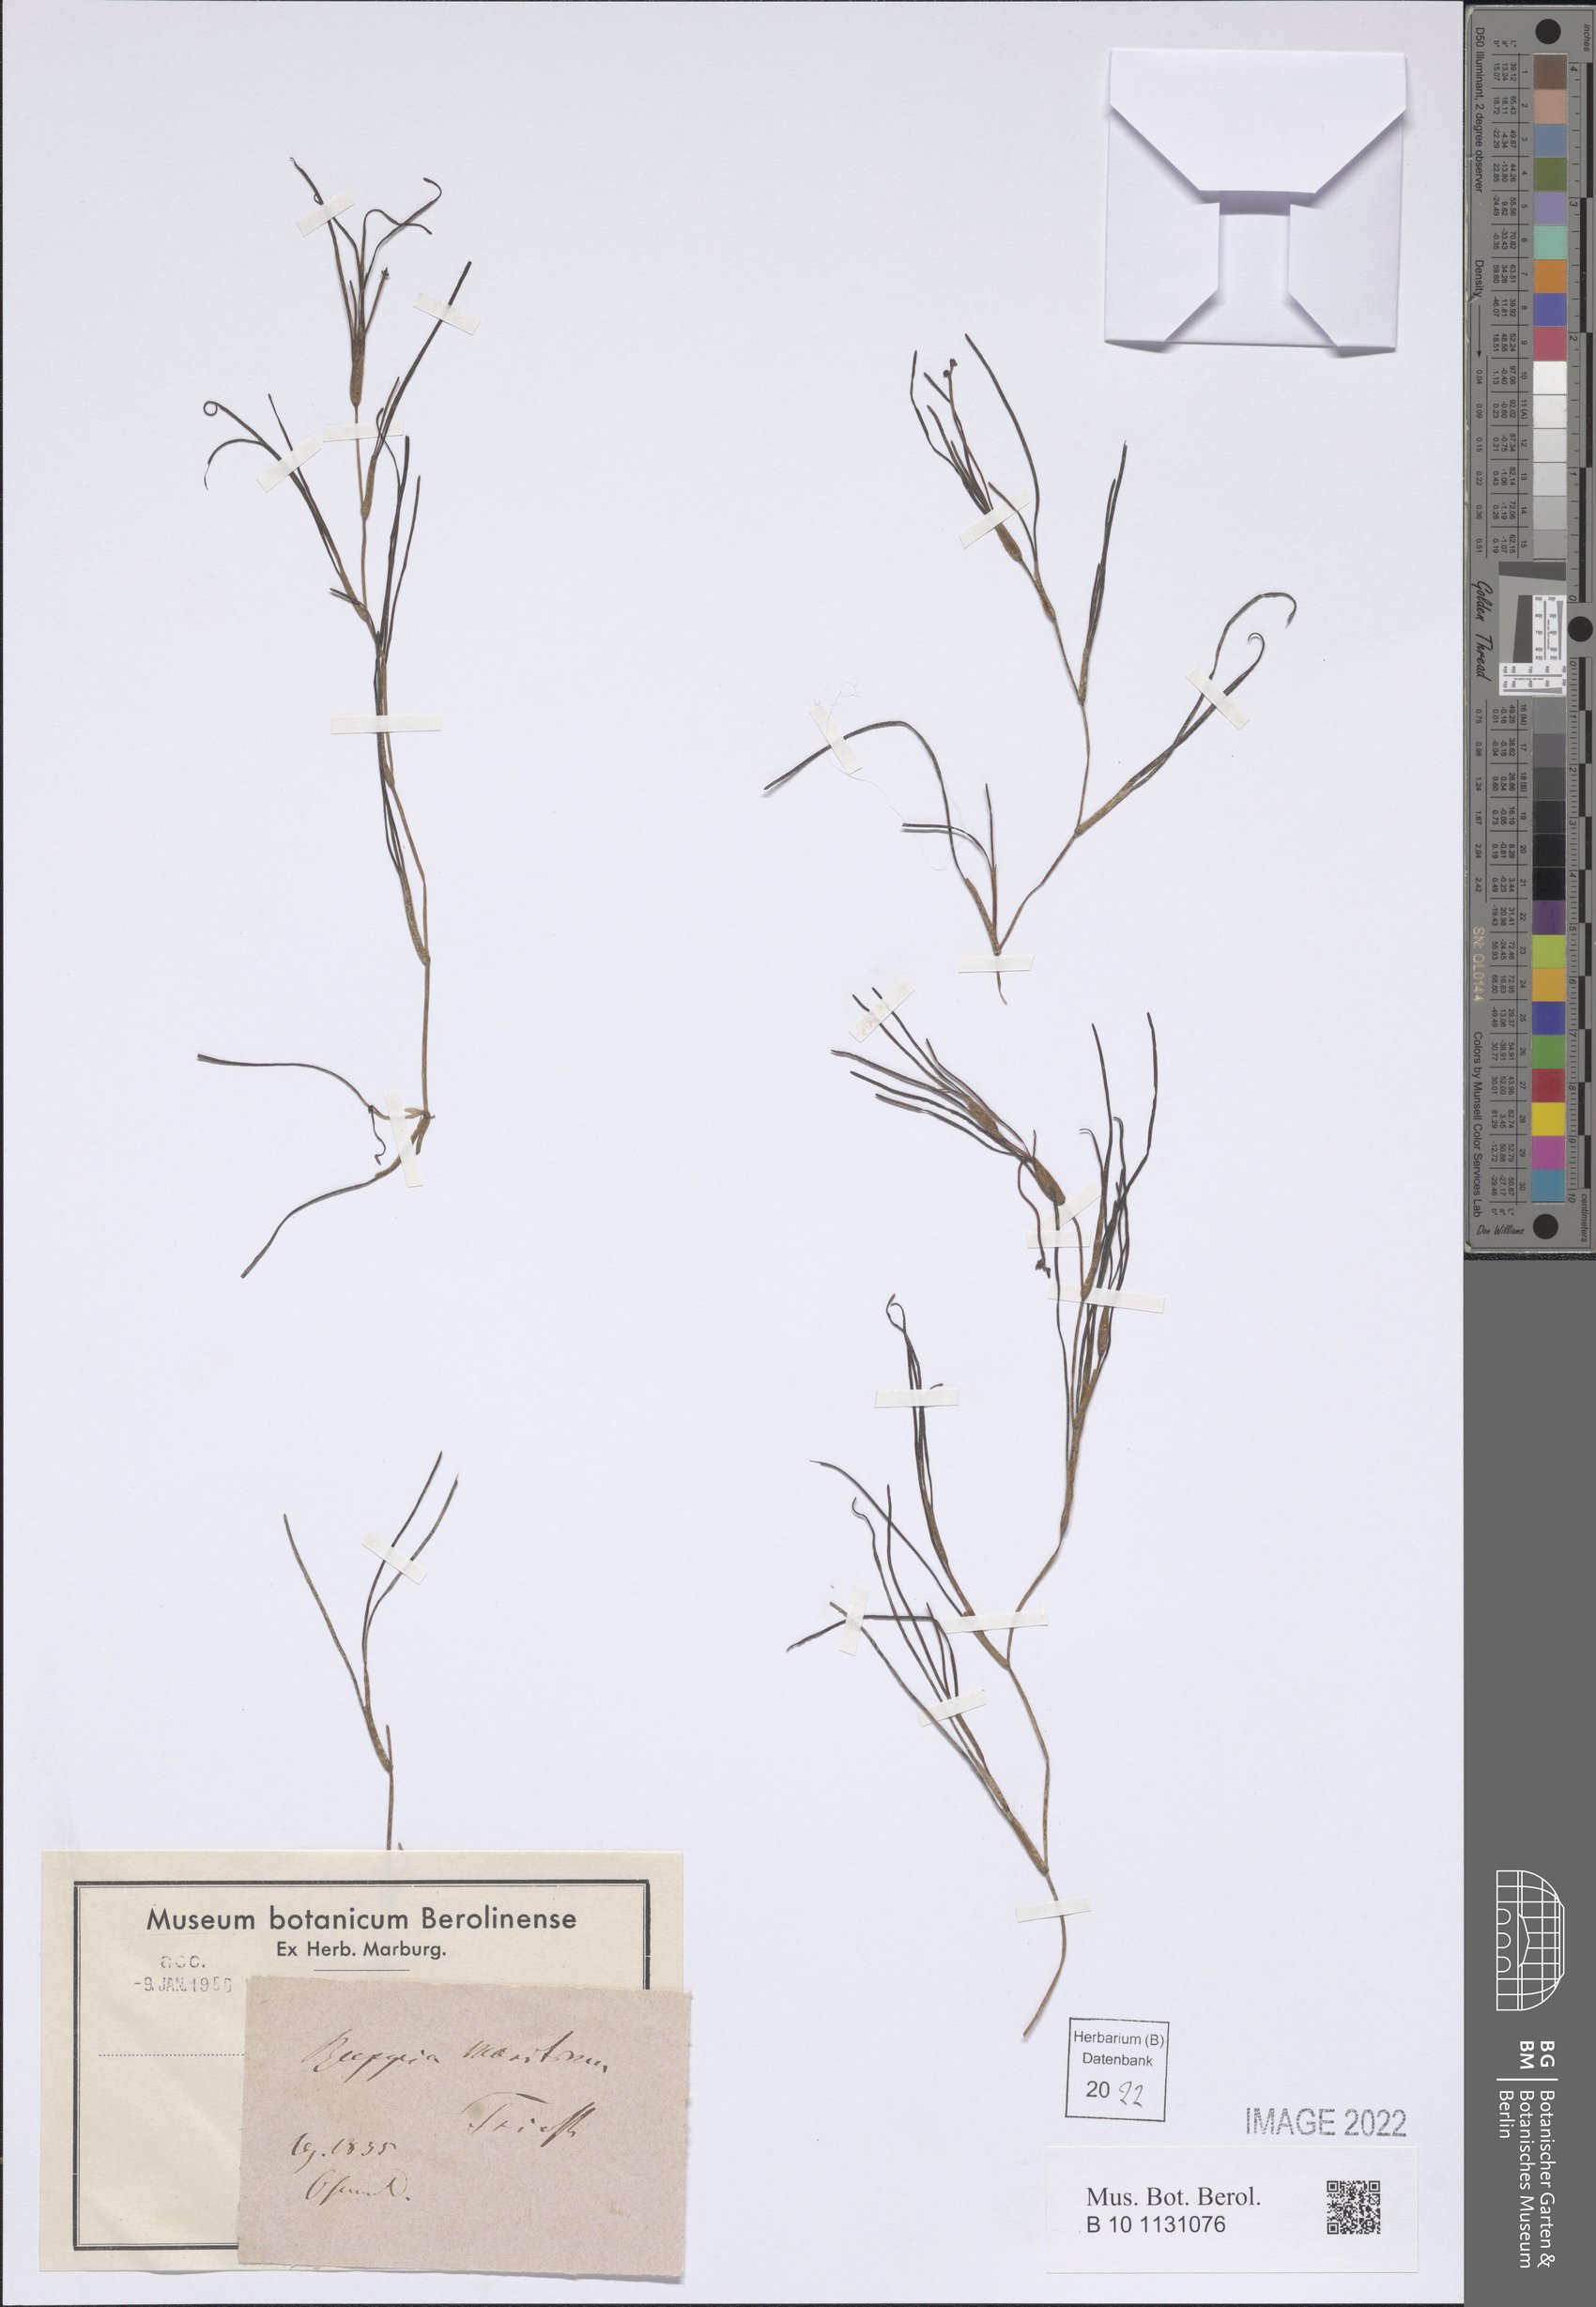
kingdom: Plantae
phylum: Tracheophyta
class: Liliopsida
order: Alismatales
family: Ruppiaceae
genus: Ruppia
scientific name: Ruppia maritima
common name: Beaked tasselweed
